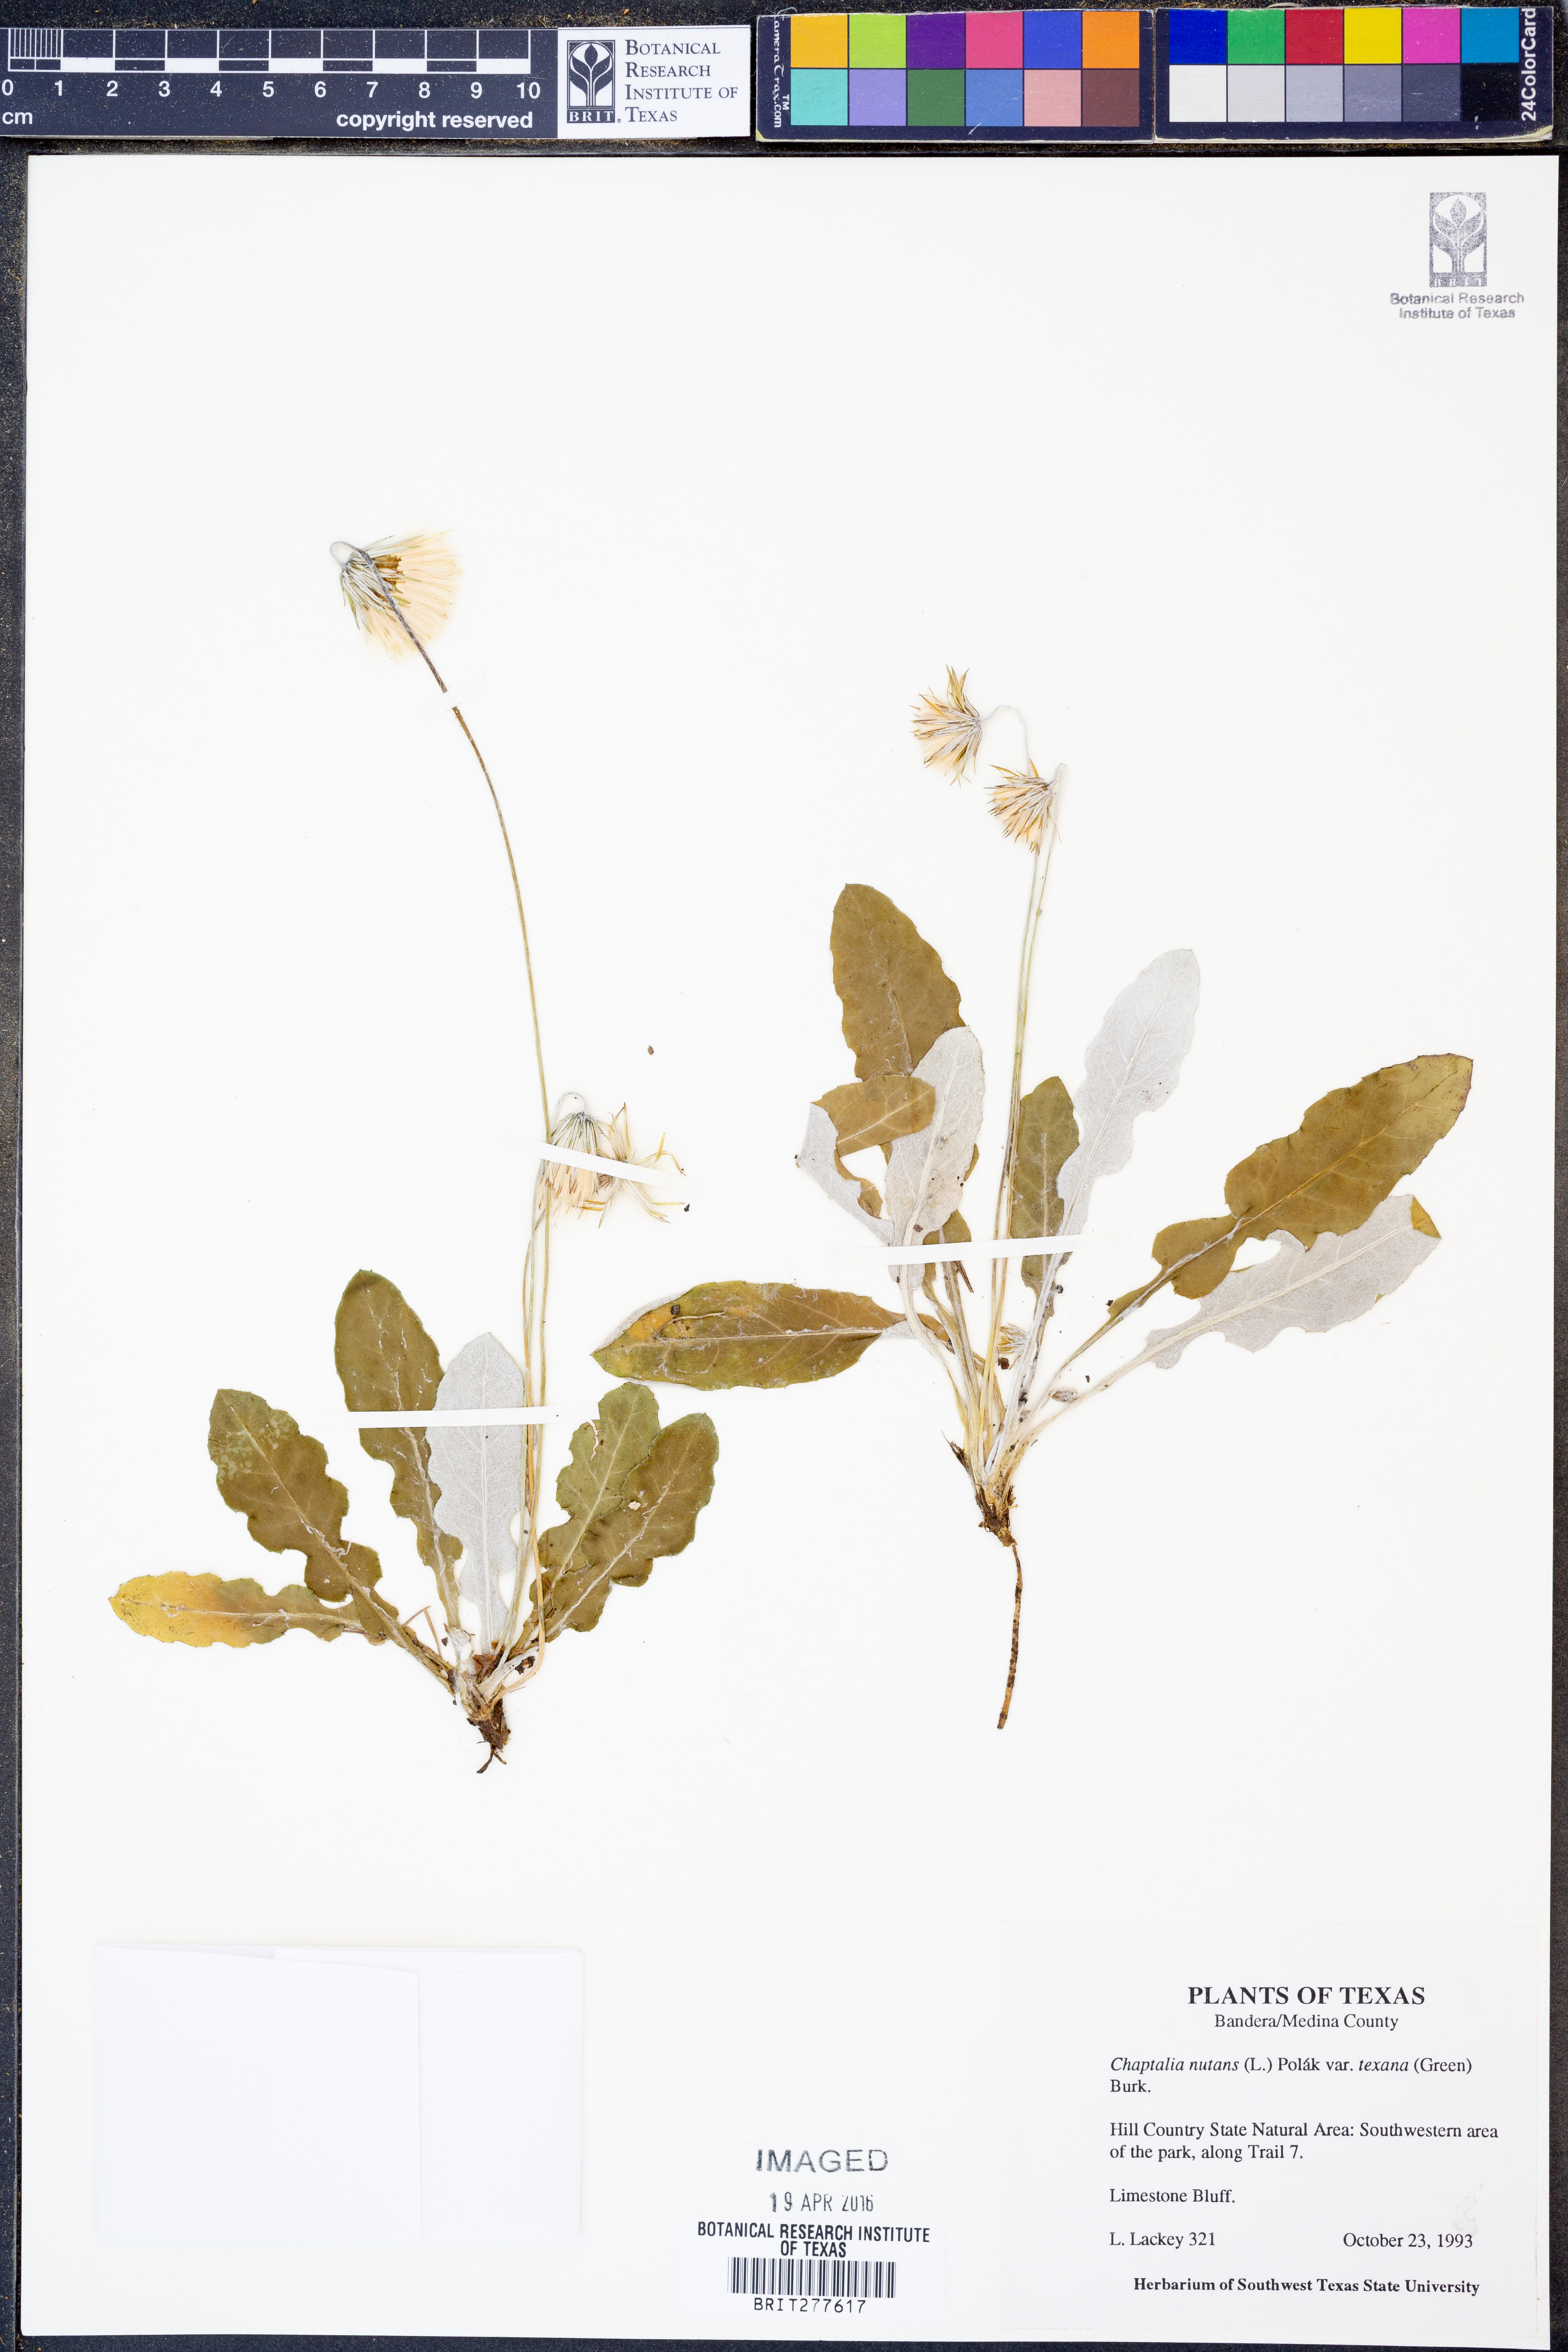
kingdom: Plantae
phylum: Tracheophyta
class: Magnoliopsida
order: Asterales
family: Asteraceae
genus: Chaptalia
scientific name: Chaptalia texana
